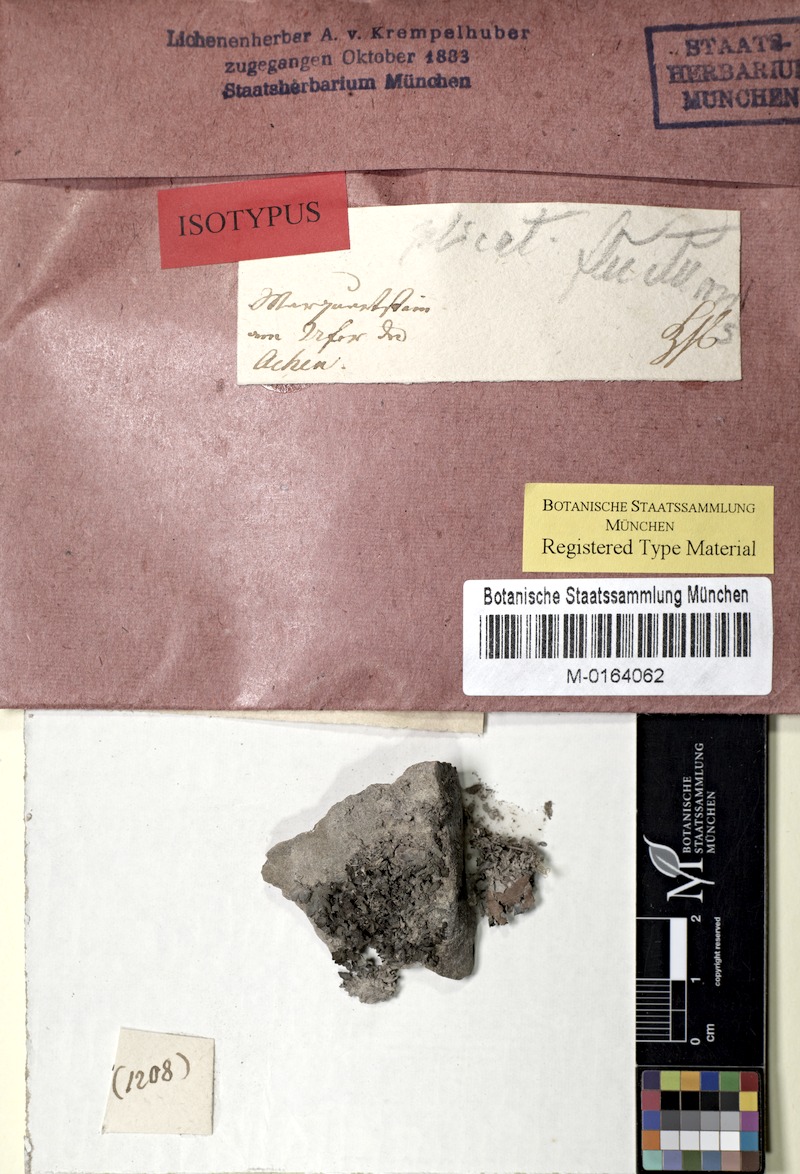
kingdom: Fungi
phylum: Ascomycota
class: Lecanoromycetes
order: Peltigerales
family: Collemataceae
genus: Scytinium
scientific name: Scytinium plicatile
